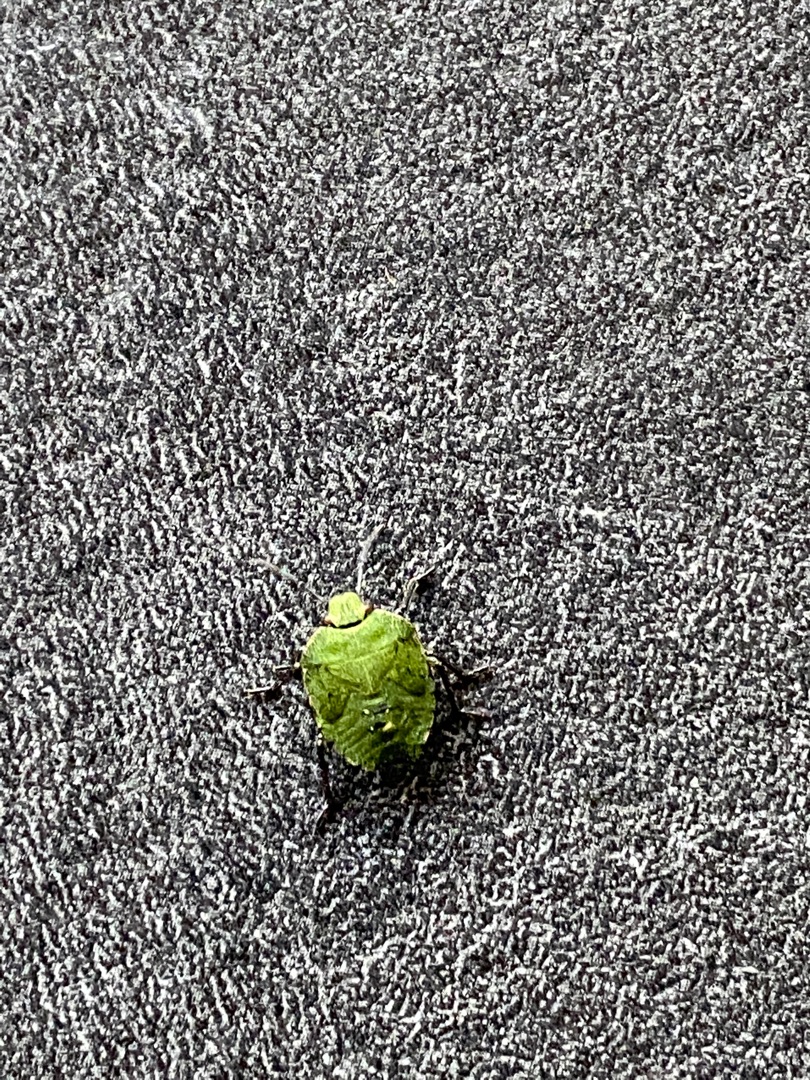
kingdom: Animalia
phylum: Arthropoda
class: Insecta
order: Hemiptera
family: Pentatomidae
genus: Palomena
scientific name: Palomena prasina
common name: Grøn bredtæge
